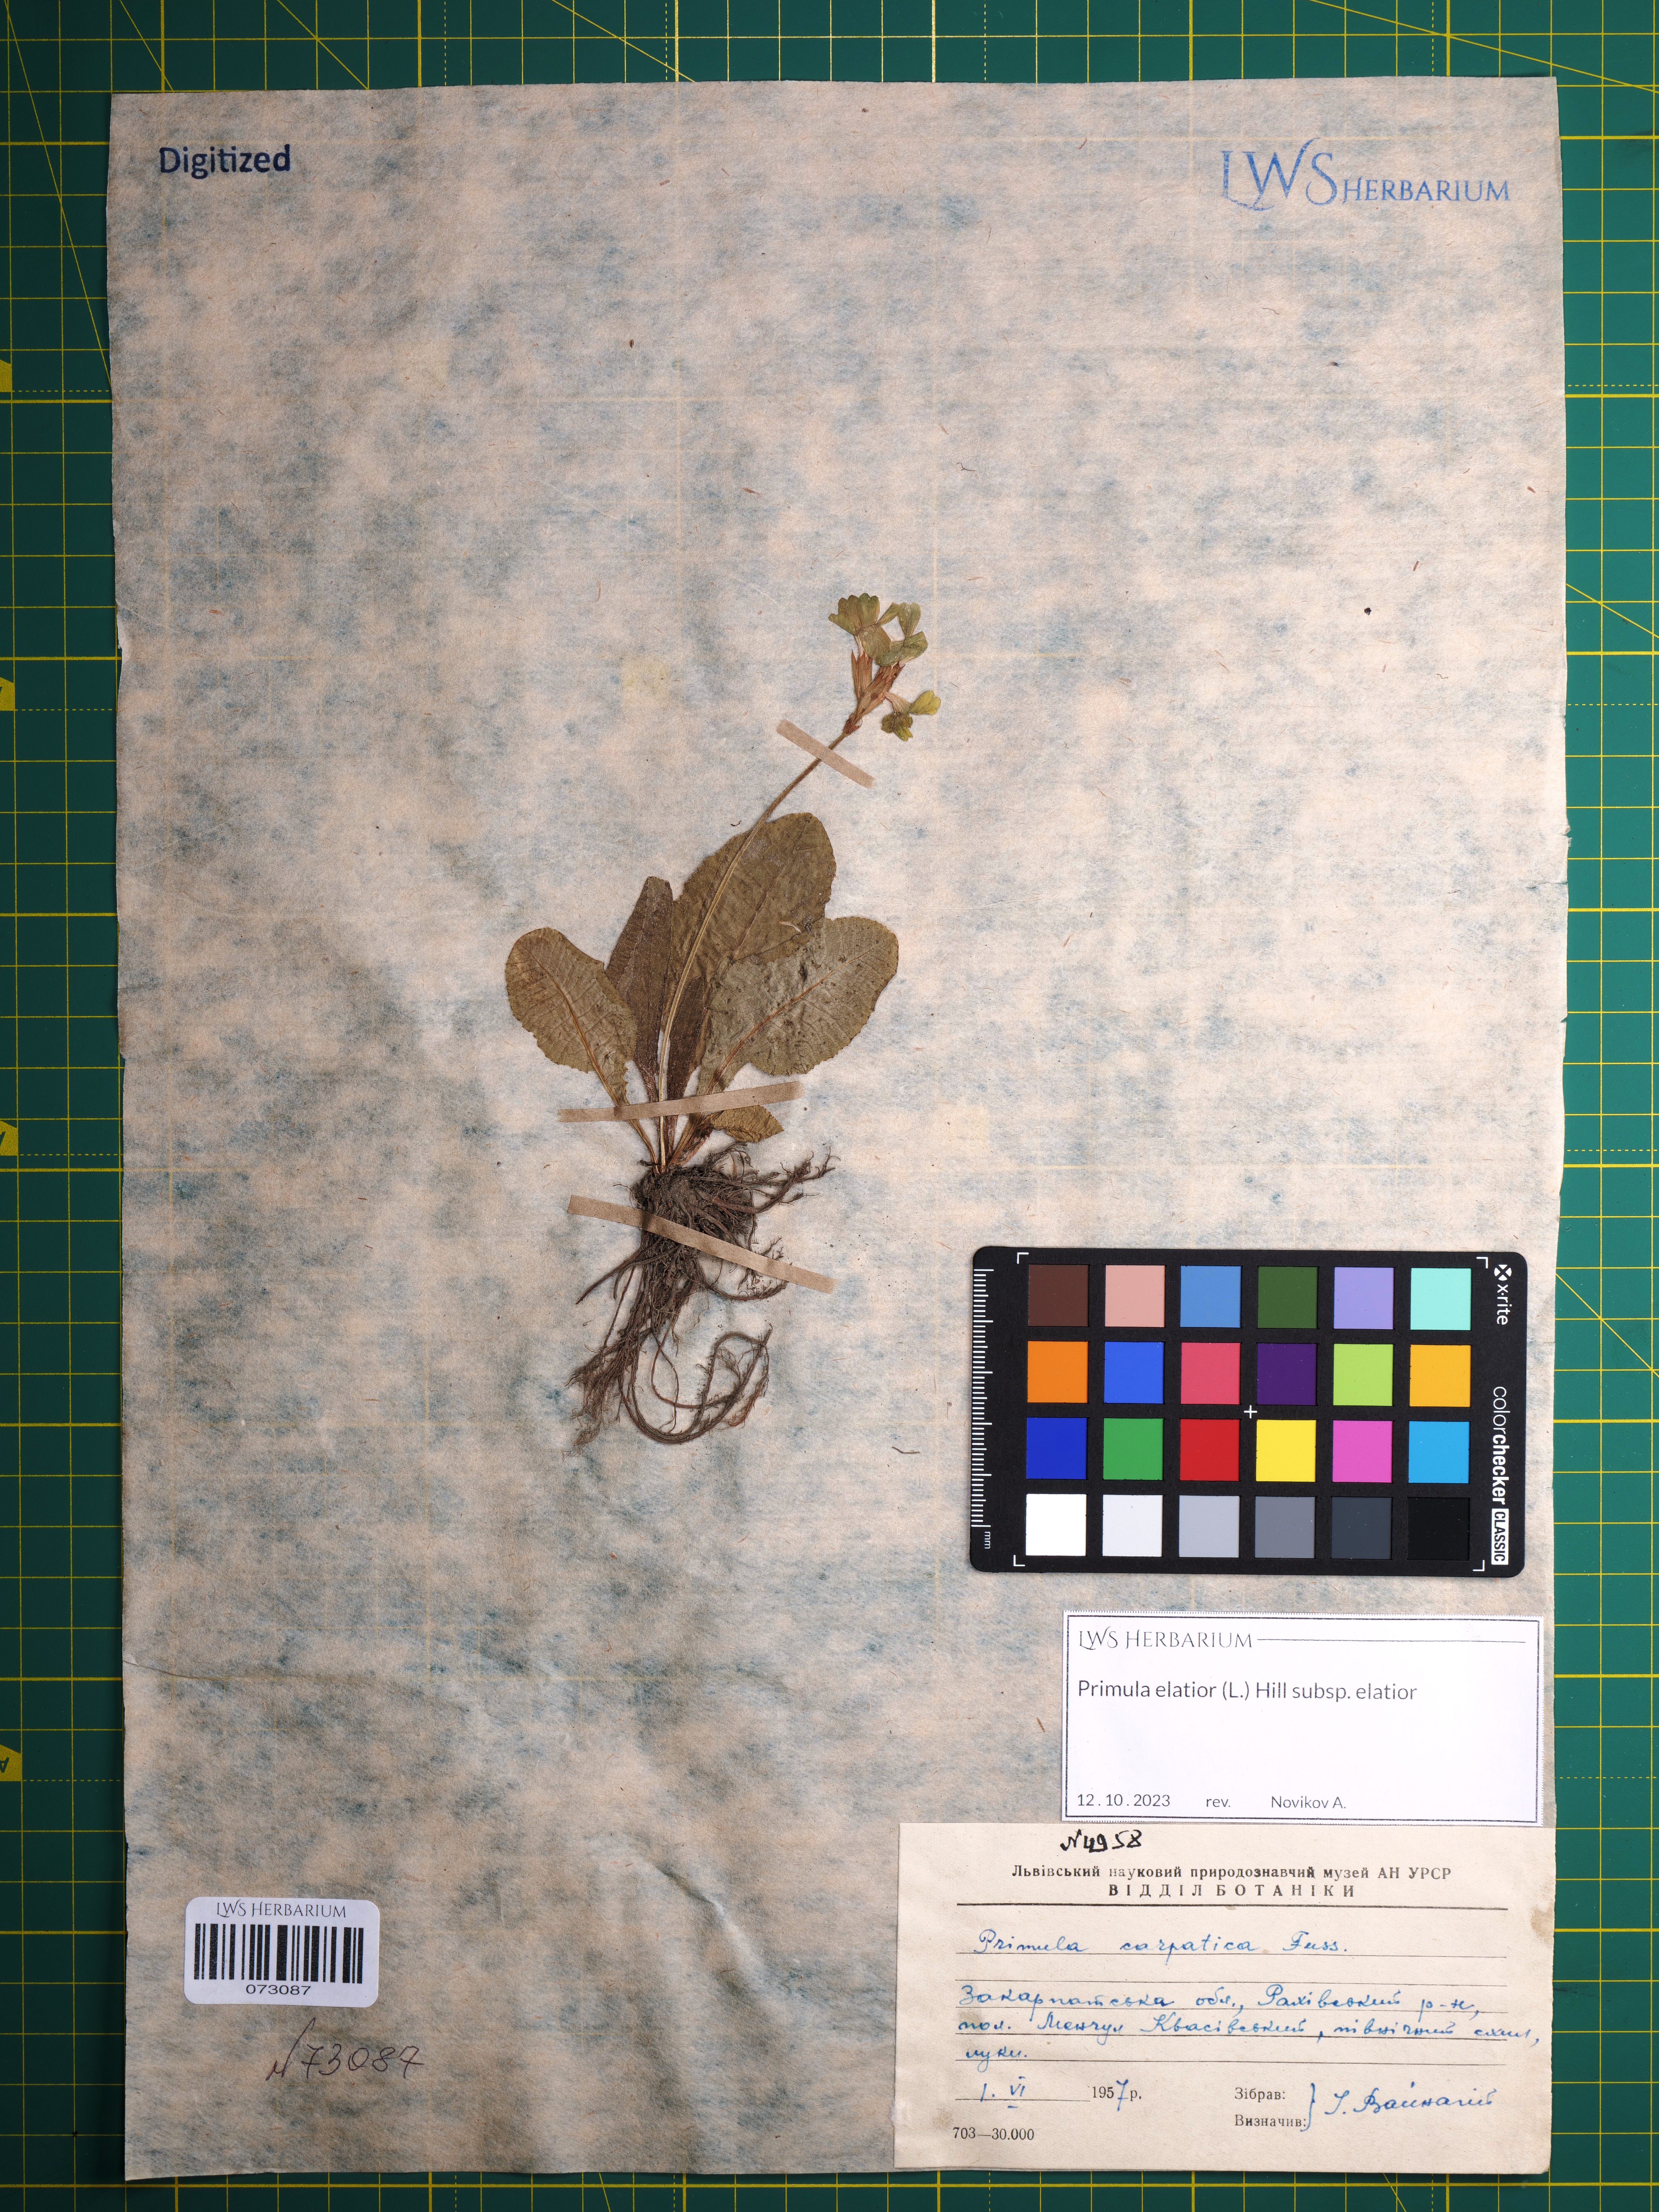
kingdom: Plantae
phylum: Tracheophyta
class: Magnoliopsida
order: Ericales
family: Primulaceae
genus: Primula
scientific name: Primula elatior
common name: Oxlip
